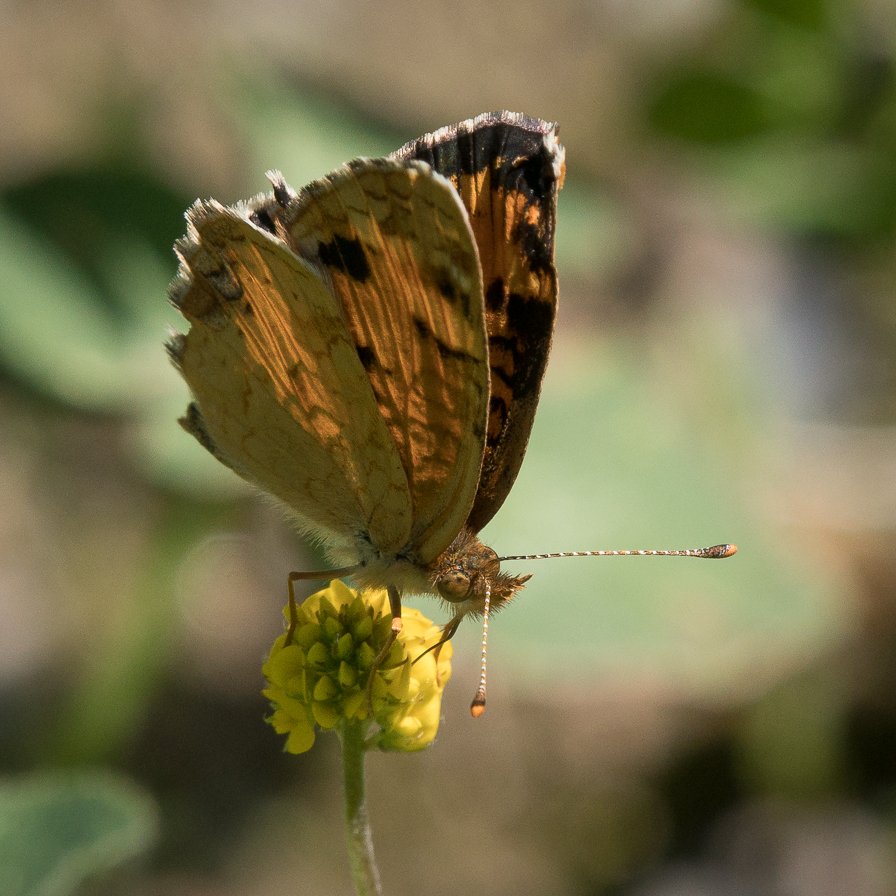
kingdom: Animalia
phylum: Arthropoda
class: Insecta
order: Lepidoptera
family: Nymphalidae
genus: Phyciodes
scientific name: Phyciodes tharos
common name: Northern Crescent
